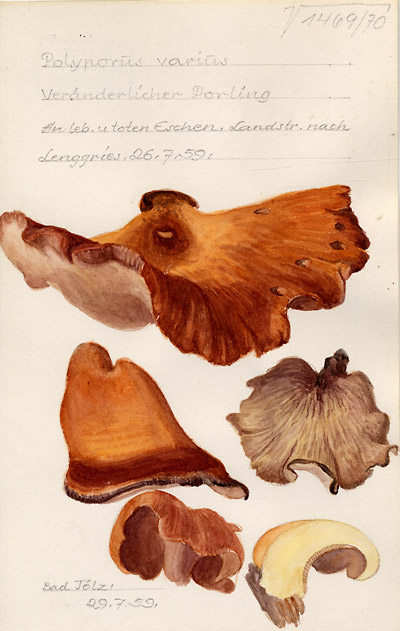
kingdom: Fungi
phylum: Basidiomycota
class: Agaricomycetes
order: Polyporales
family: Polyporaceae
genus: Polyporus
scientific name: Polyporus varius
